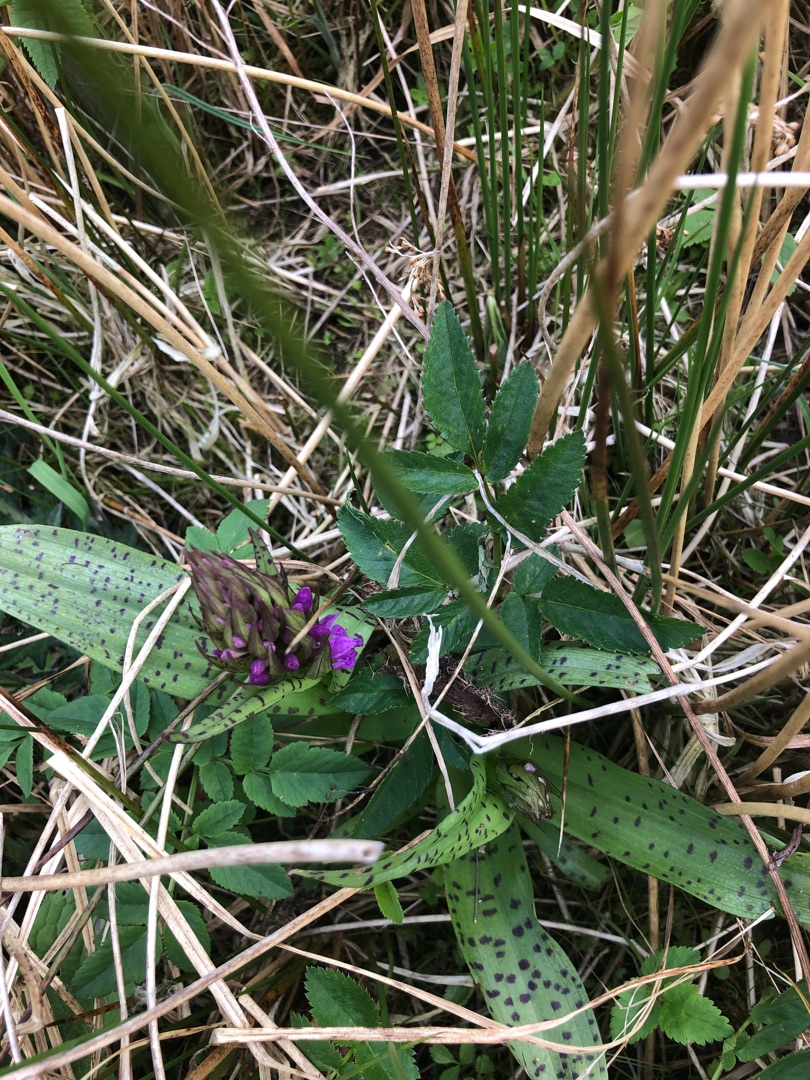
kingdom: Plantae
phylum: Tracheophyta
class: Liliopsida
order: Asparagales
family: Orchidaceae
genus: Dactylorhiza
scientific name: Dactylorhiza majalis
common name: Maj-gøgeurt
